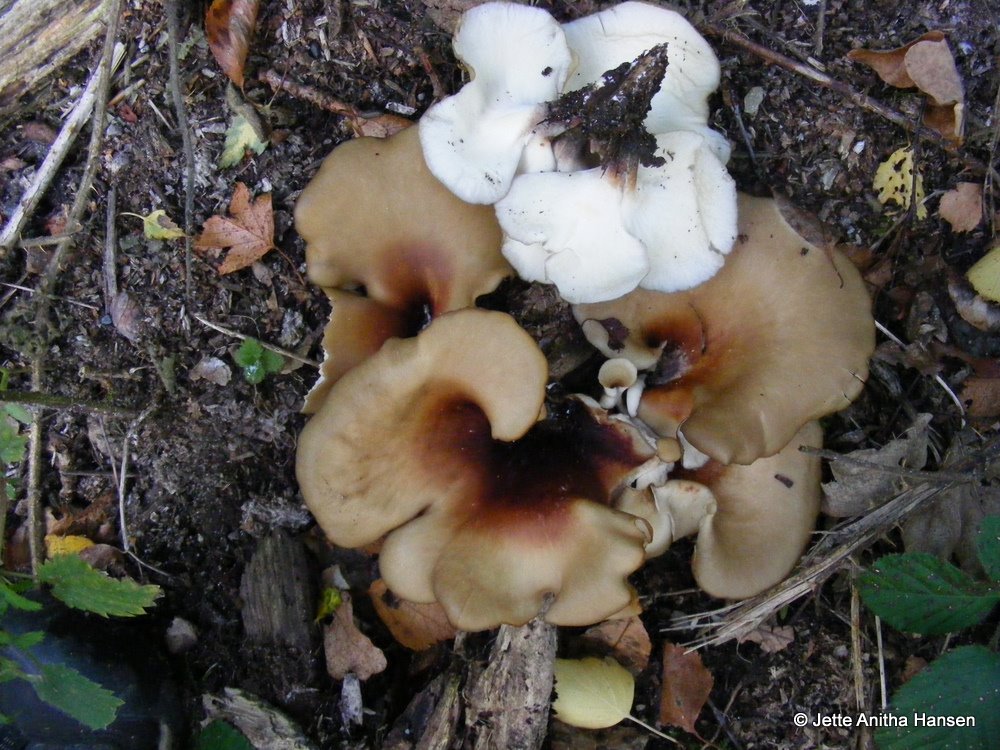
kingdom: Fungi
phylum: Basidiomycota
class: Agaricomycetes
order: Polyporales
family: Polyporaceae
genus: Picipes
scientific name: Picipes badius
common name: kastaniebrun stilkporesvamp
